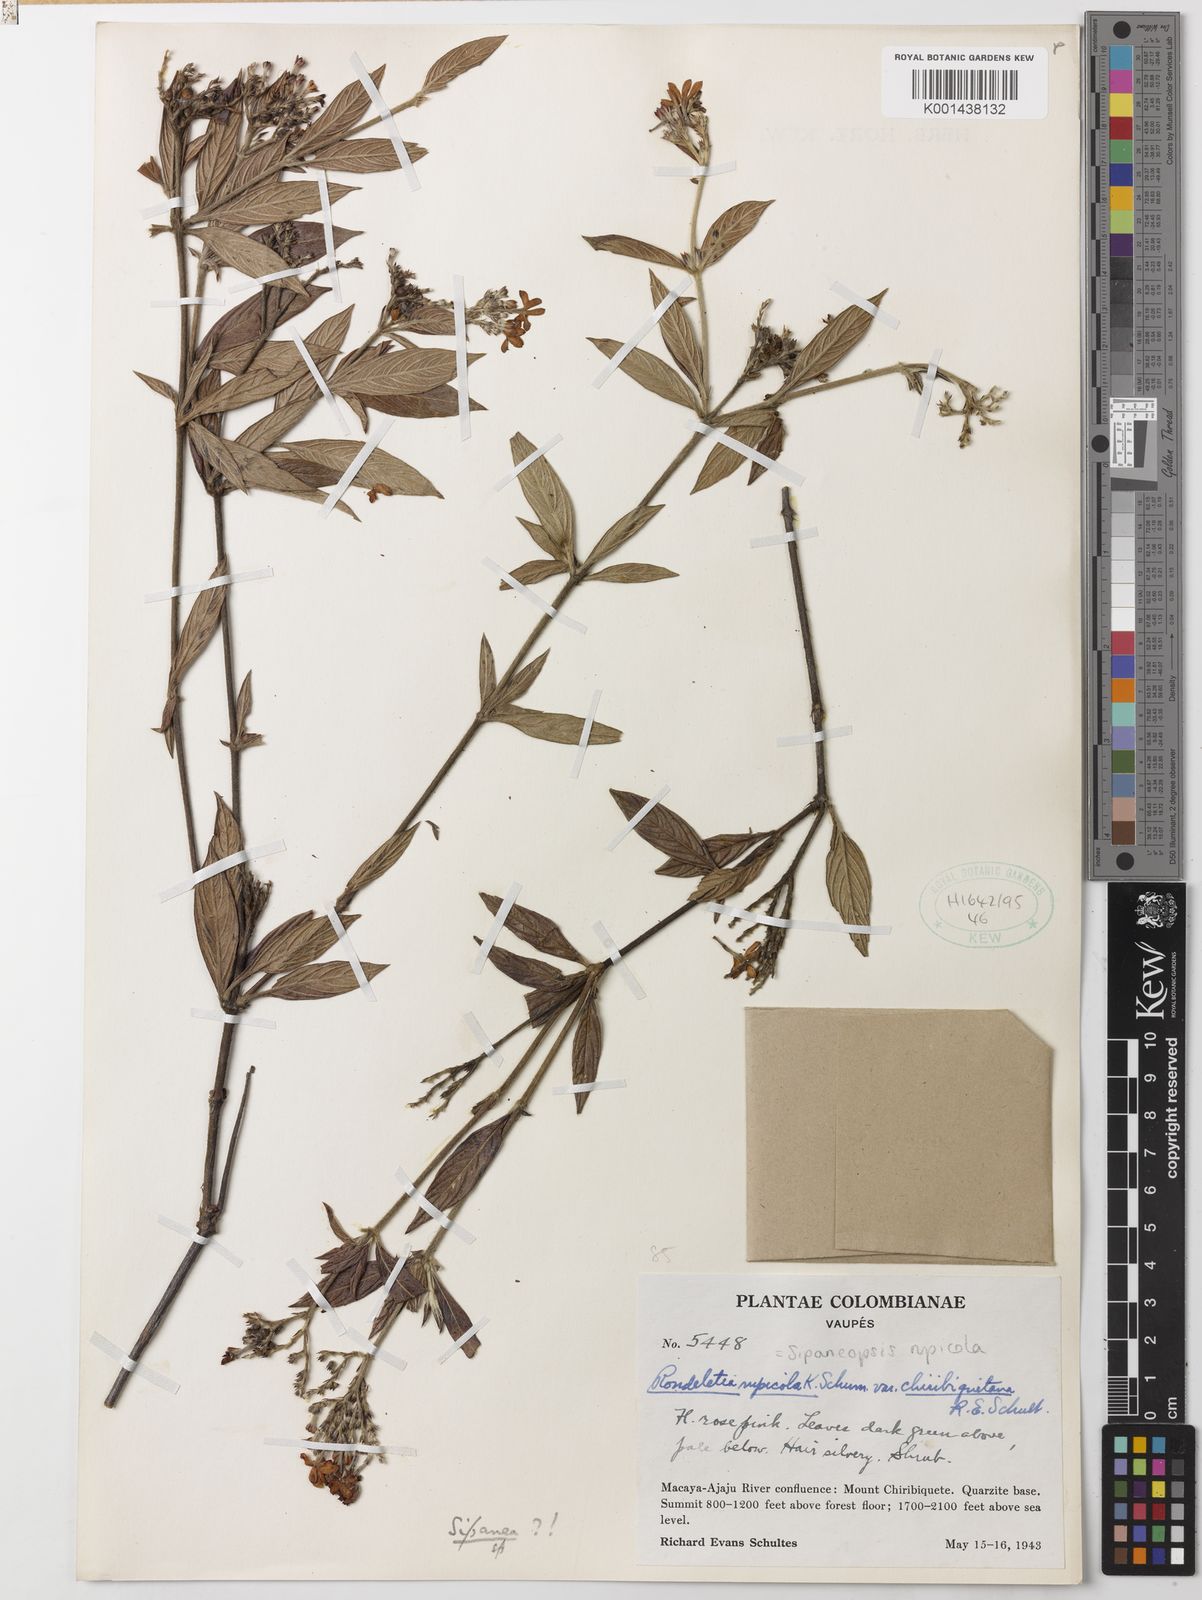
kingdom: Plantae
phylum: Tracheophyta
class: Magnoliopsida
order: Gentianales
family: Rubiaceae
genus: Sipaneopsis
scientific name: Sipaneopsis rupicola
